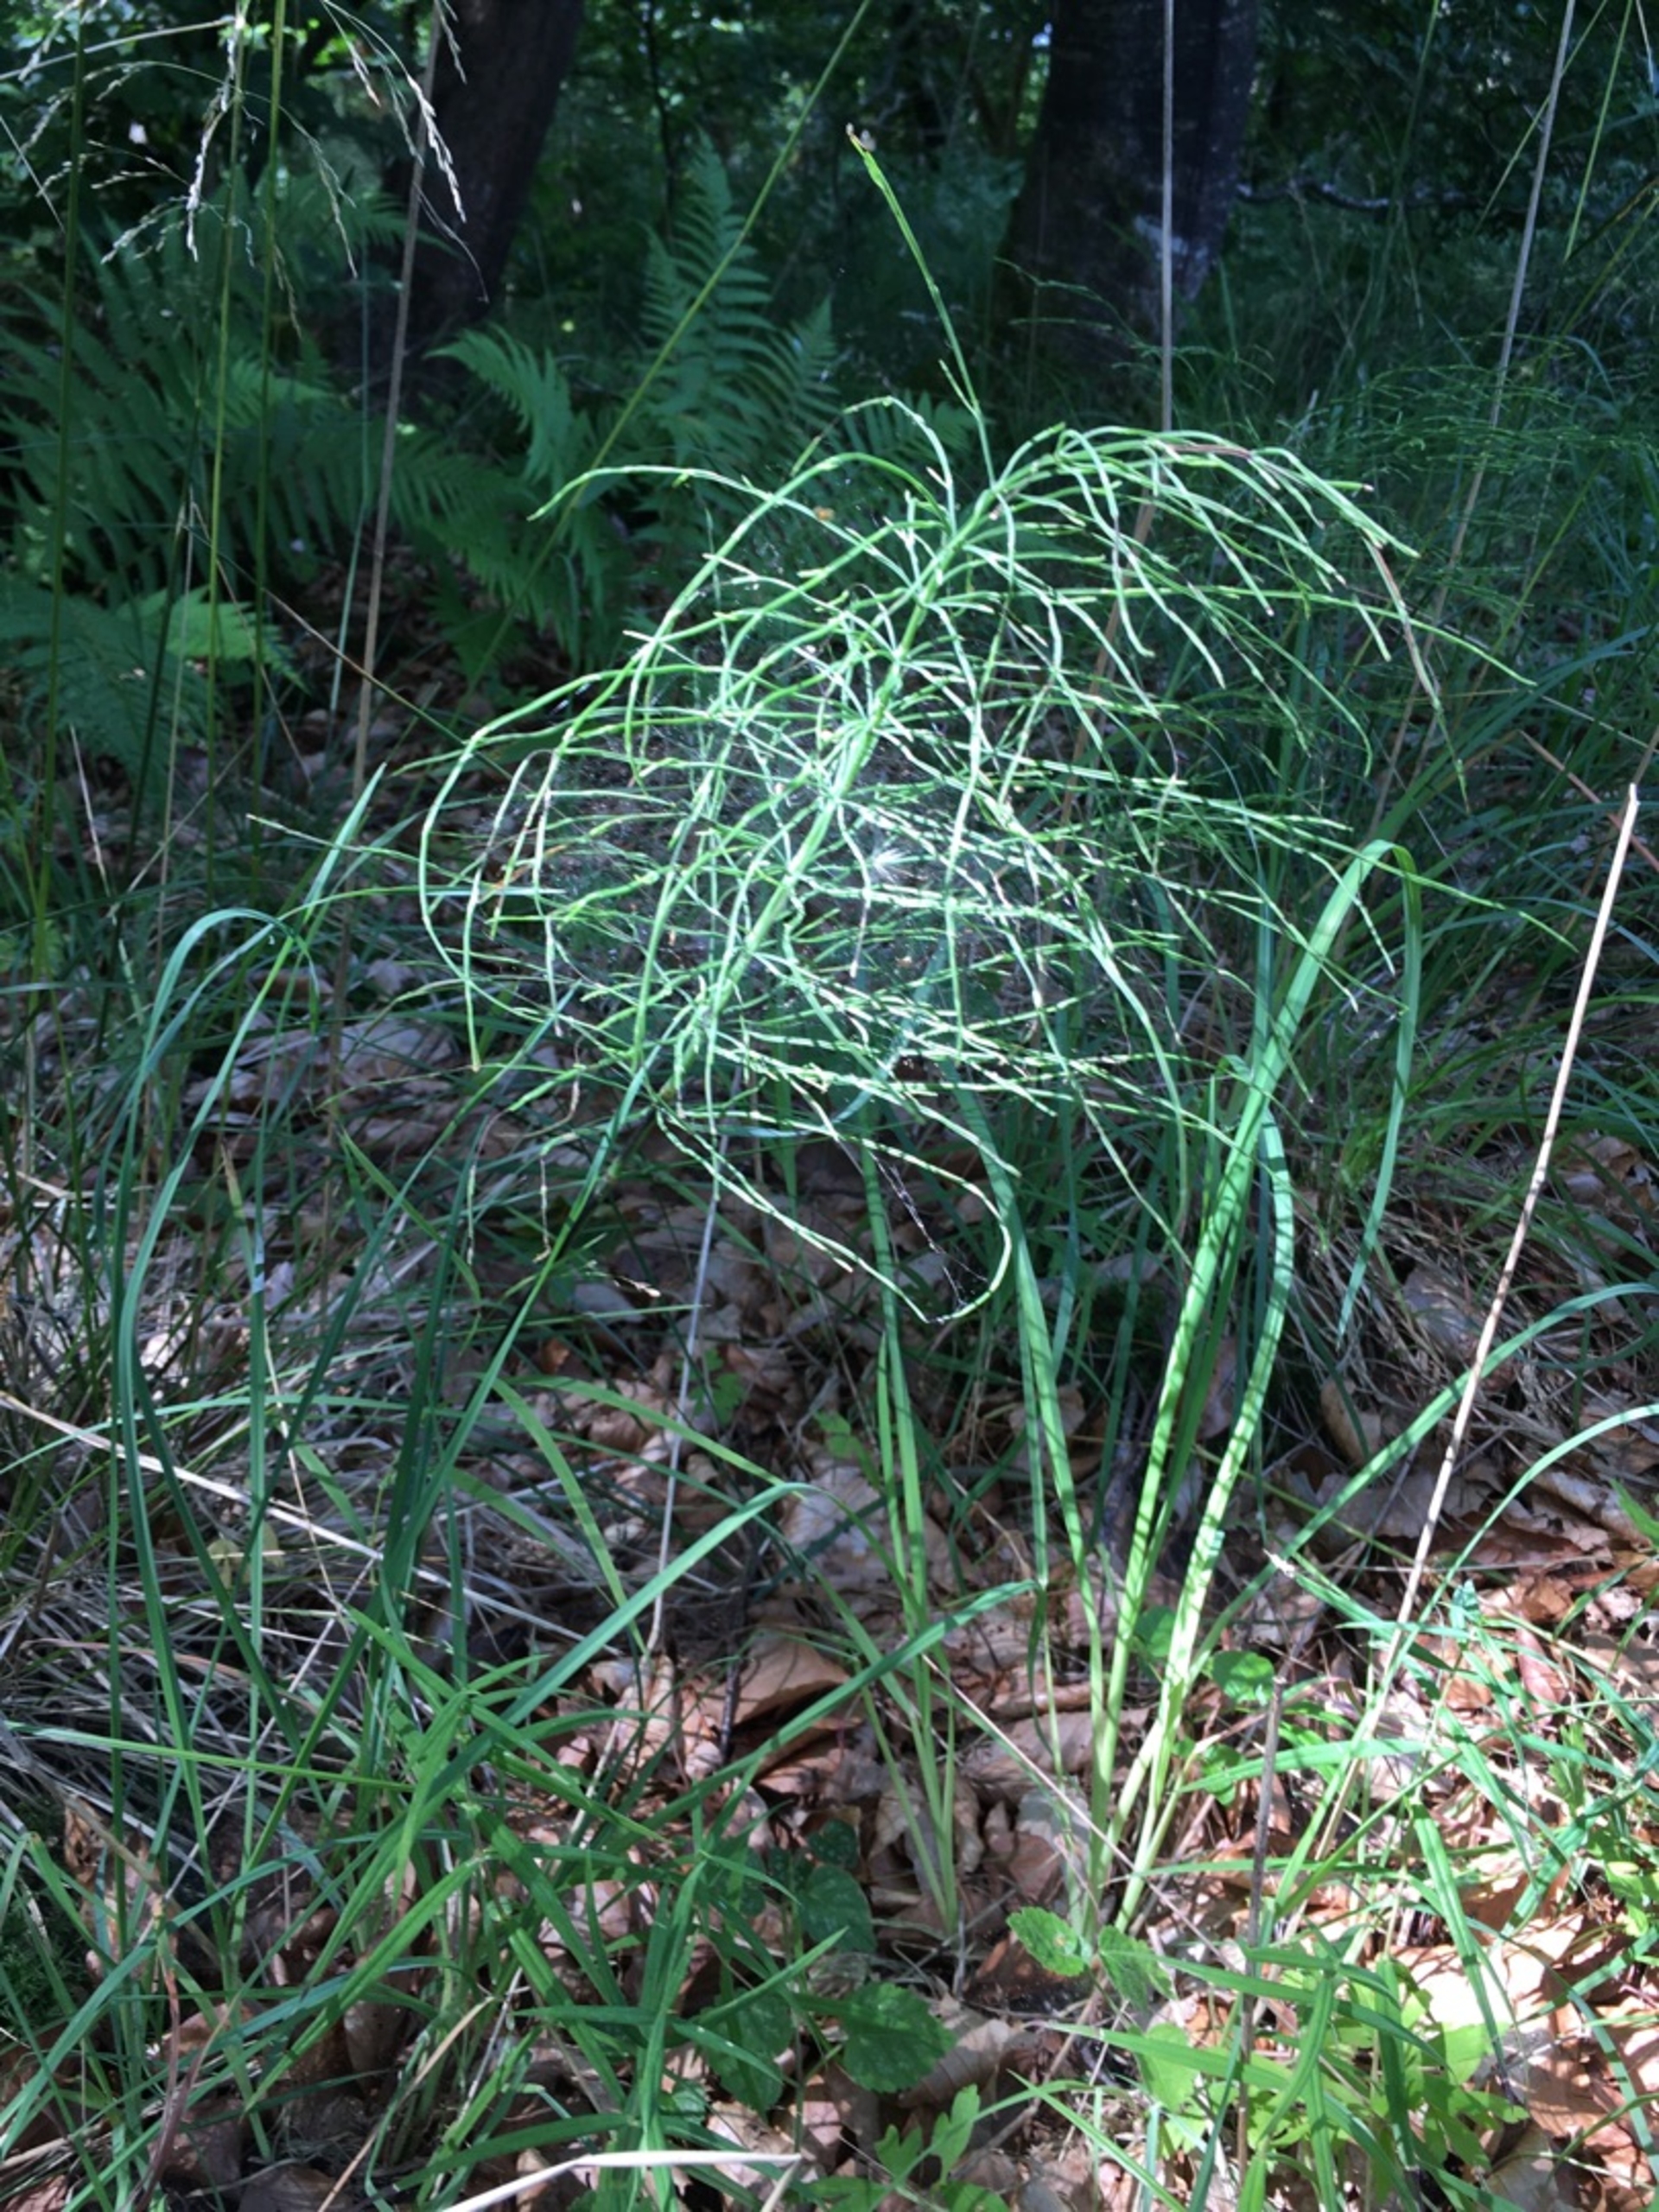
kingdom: Plantae
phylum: Tracheophyta
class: Polypodiopsida
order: Equisetales
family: Equisetaceae
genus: Equisetum
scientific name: Equisetum arvense
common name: Ager-padderok
